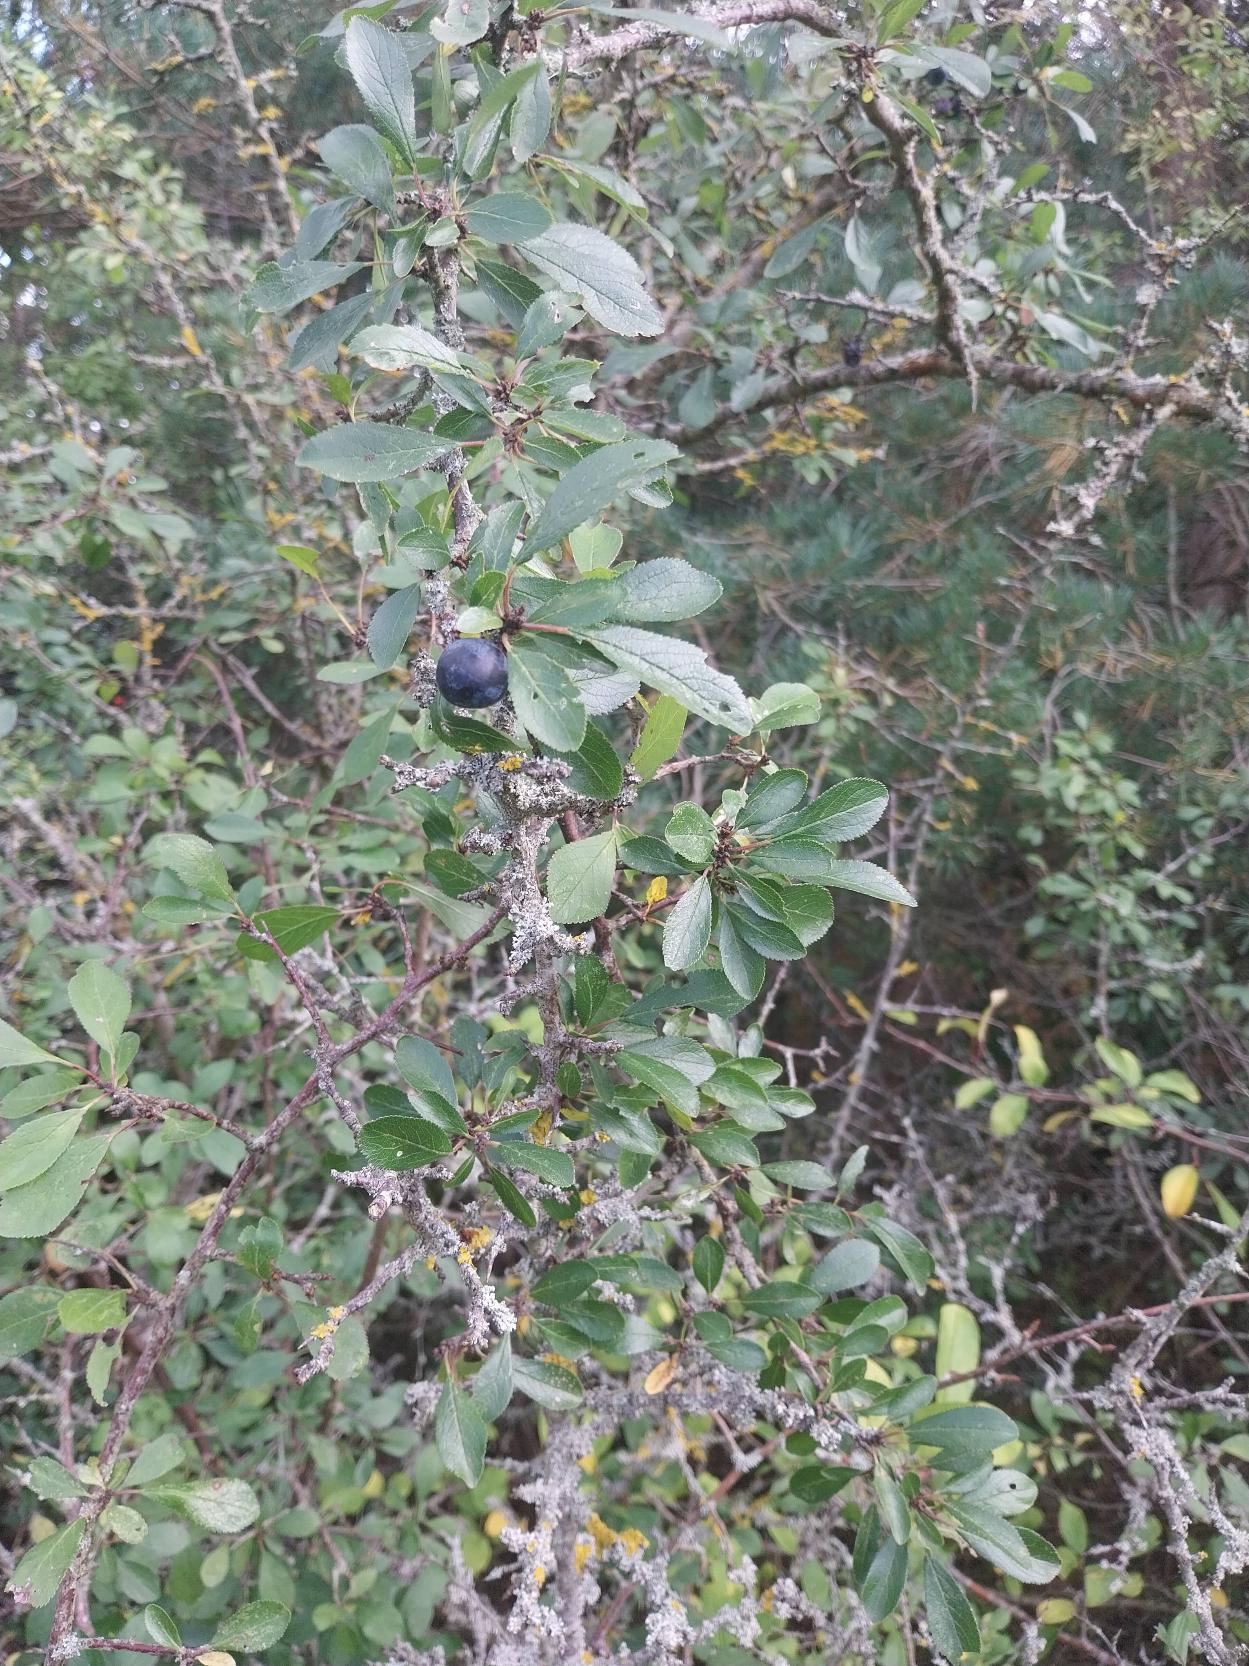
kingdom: Plantae
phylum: Tracheophyta
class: Magnoliopsida
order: Rosales
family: Rosaceae
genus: Prunus
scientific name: Prunus spinosa
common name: Slåen
